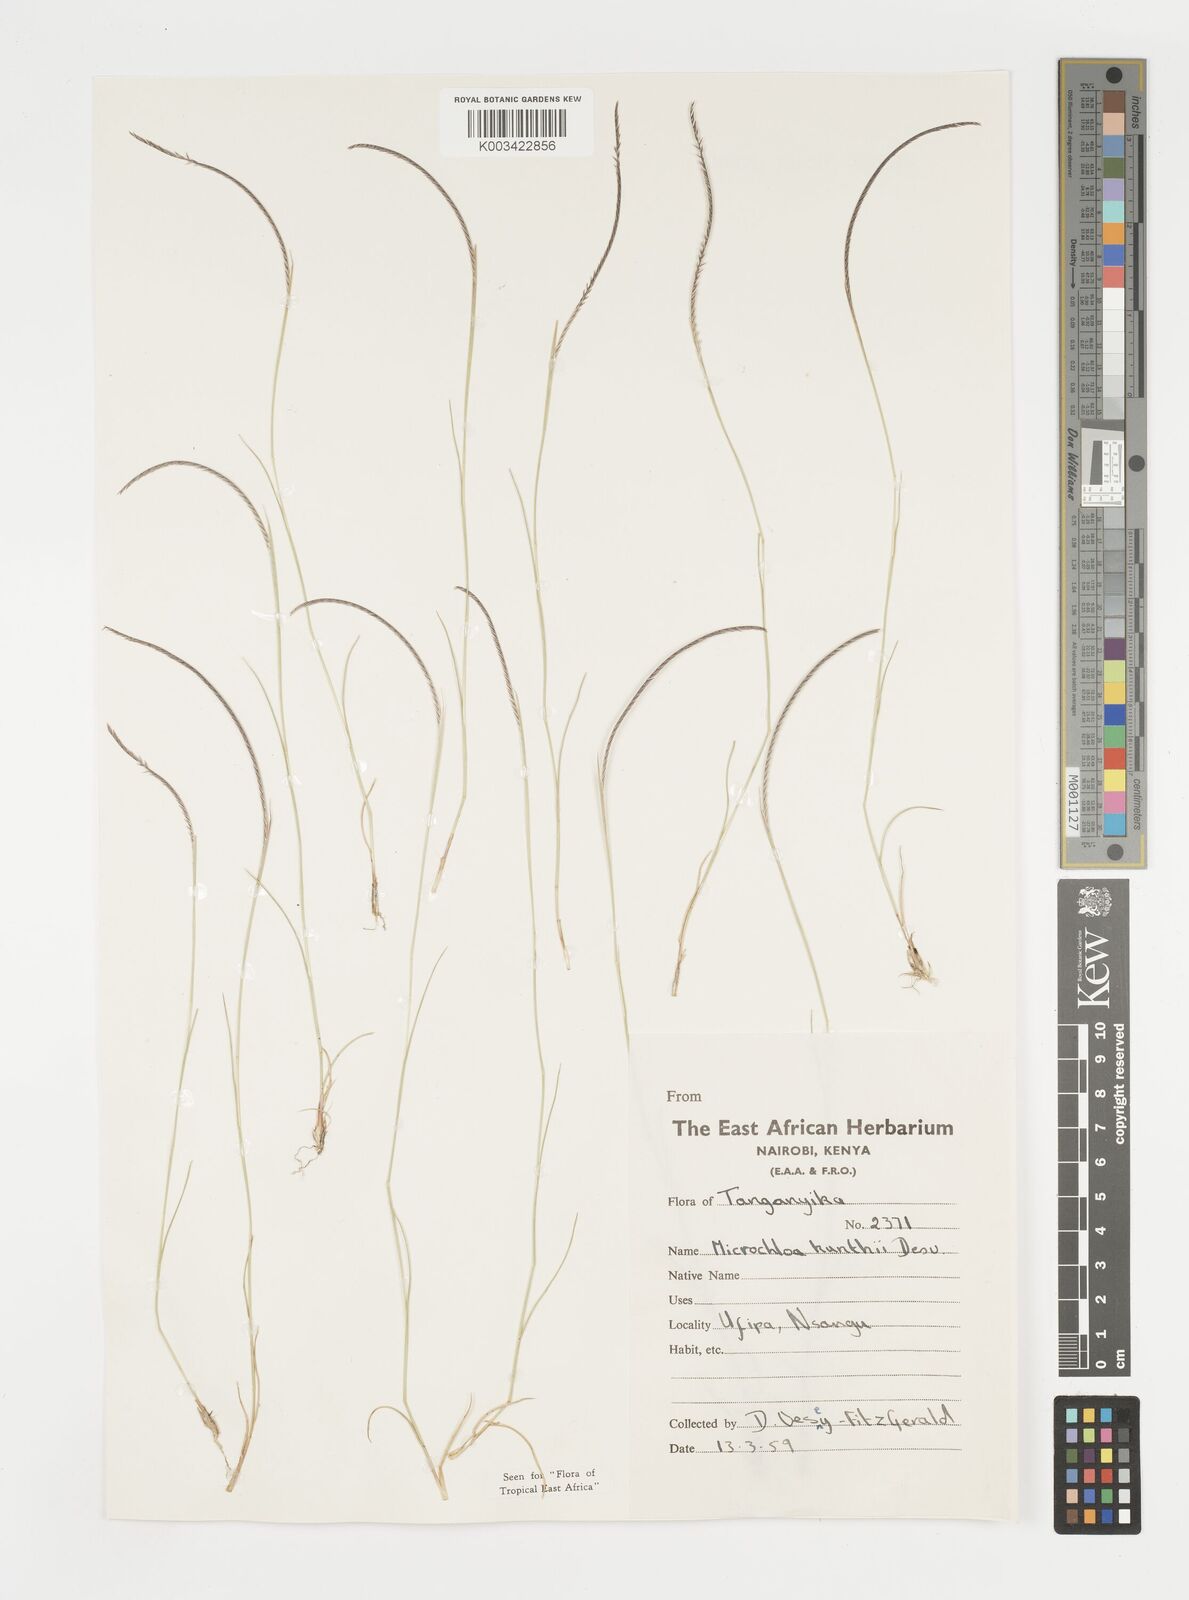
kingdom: Plantae
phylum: Tracheophyta
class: Liliopsida
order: Poales
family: Poaceae
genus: Microchloa
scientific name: Microchloa kunthii
